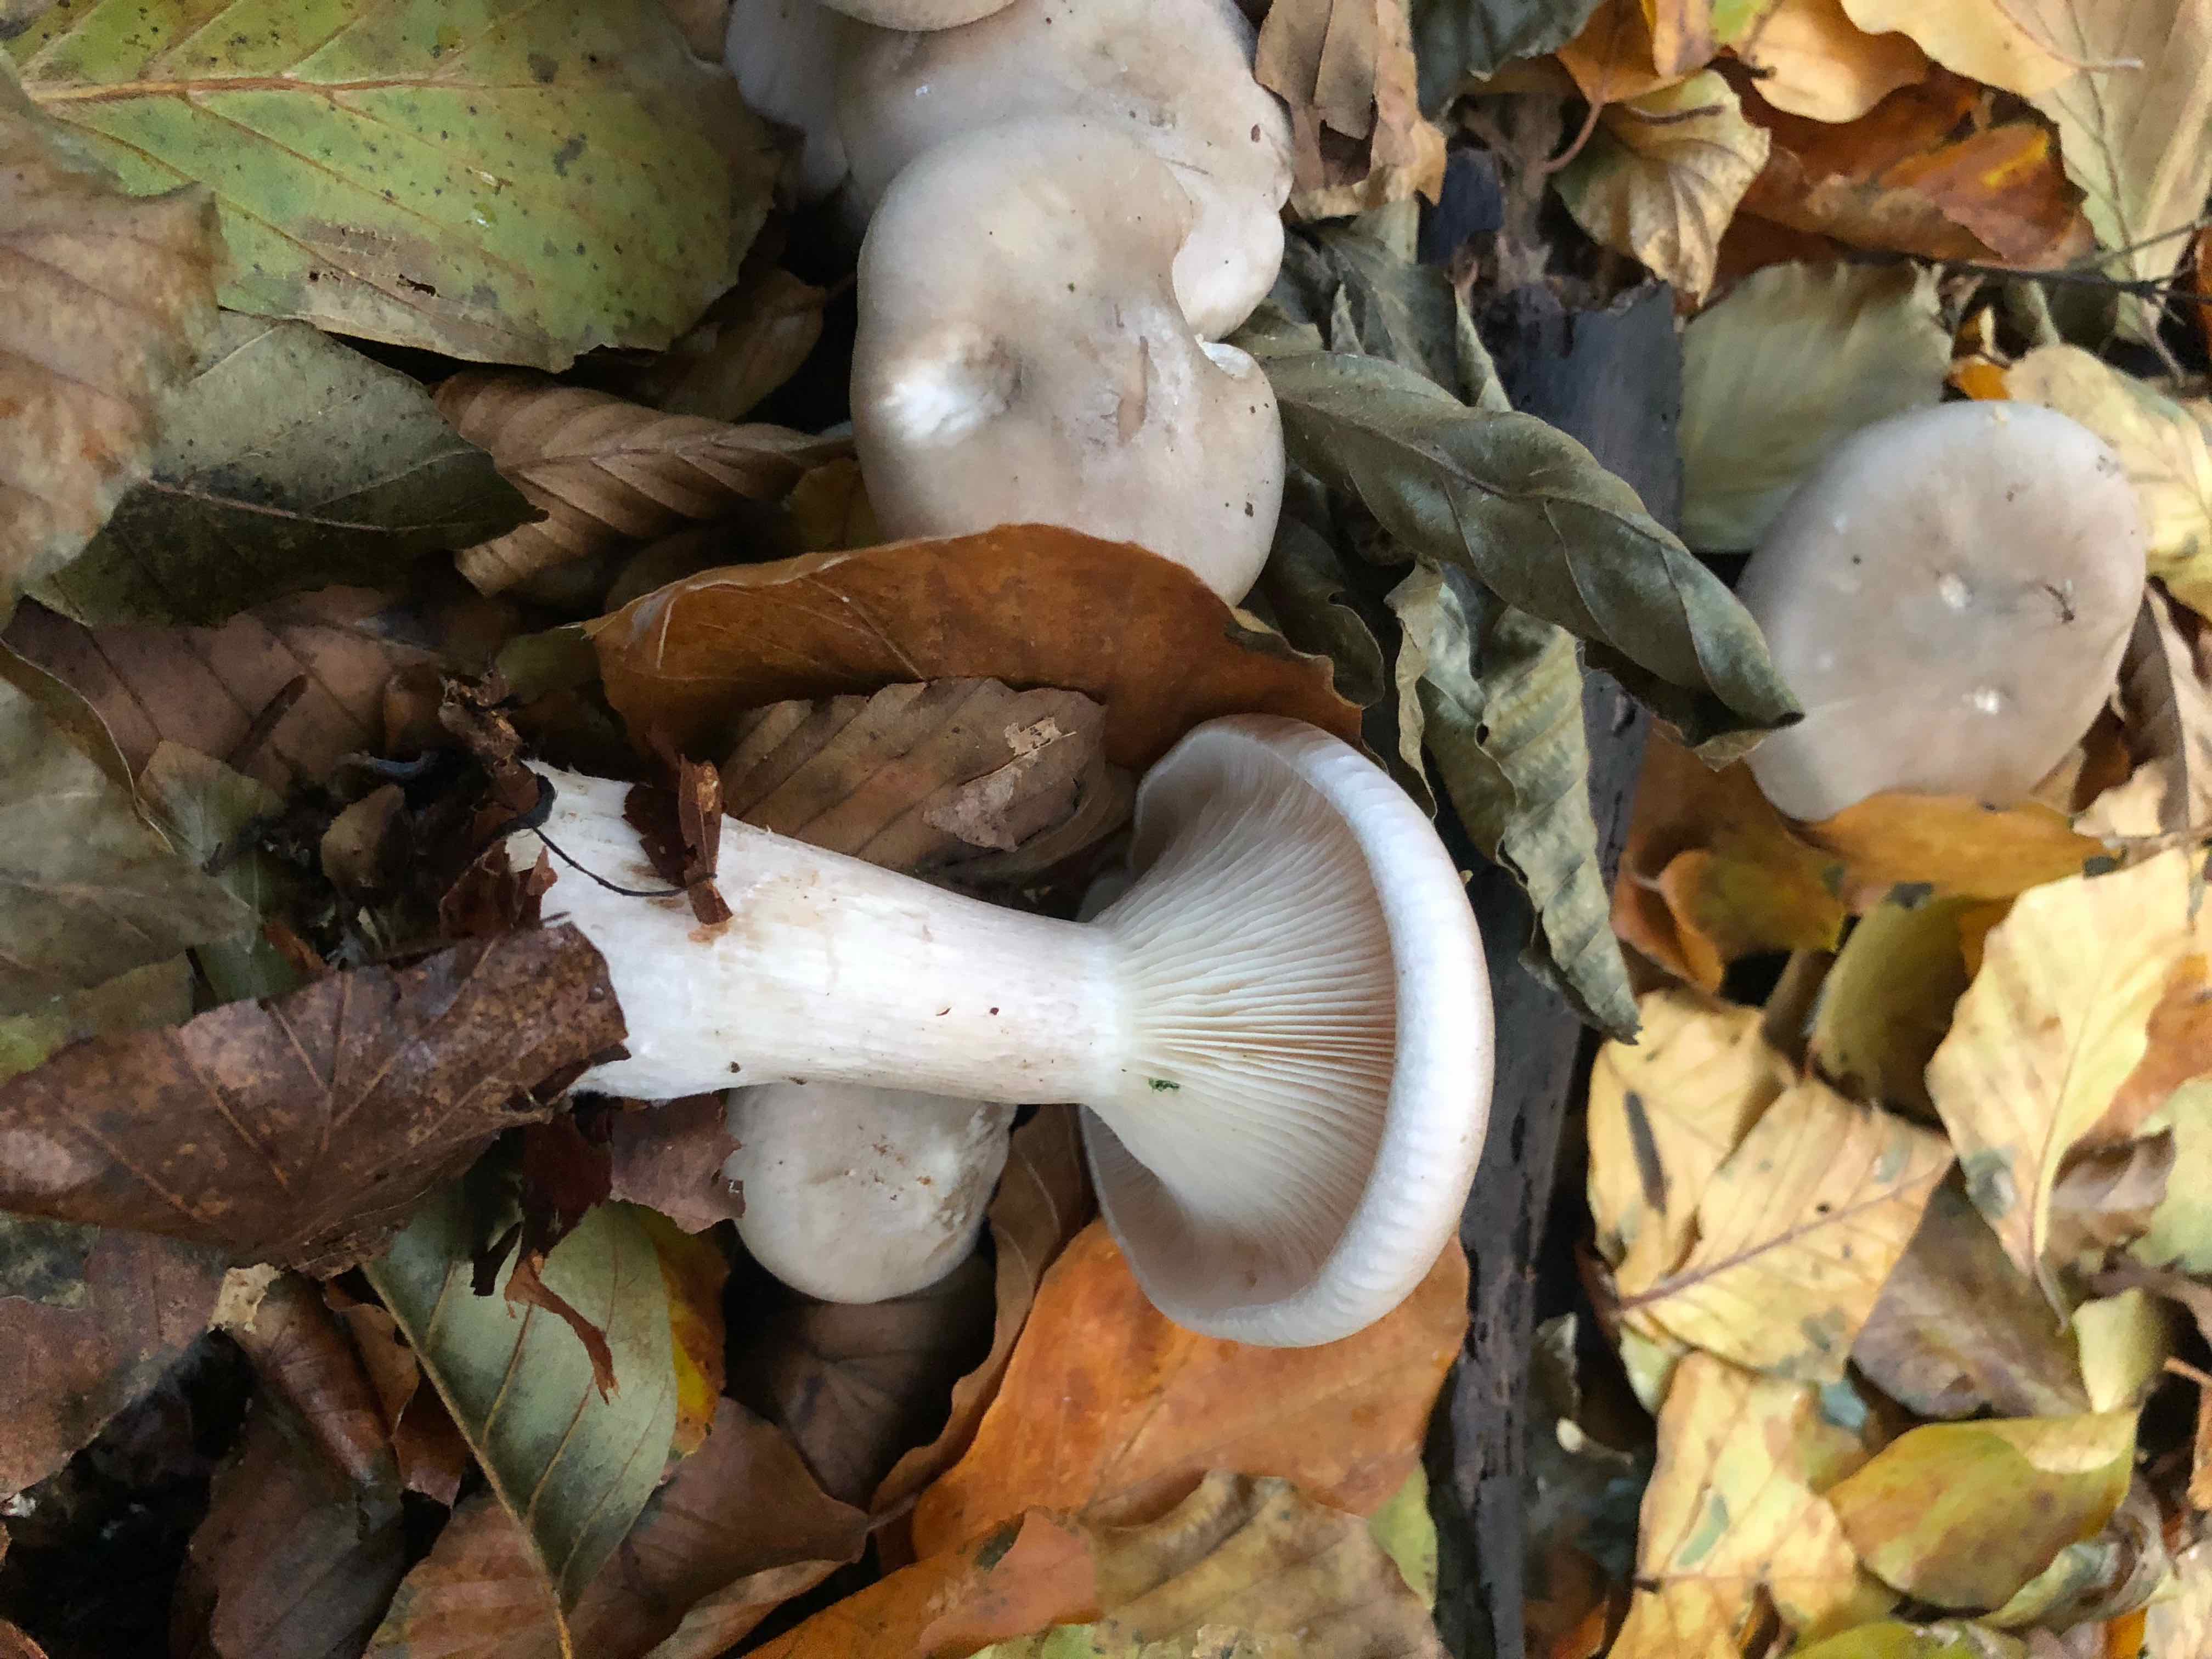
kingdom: Fungi
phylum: Basidiomycota
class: Agaricomycetes
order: Agaricales
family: Tricholomataceae
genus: Clitocybe
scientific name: Clitocybe nebularis
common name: tåge-tragthat
